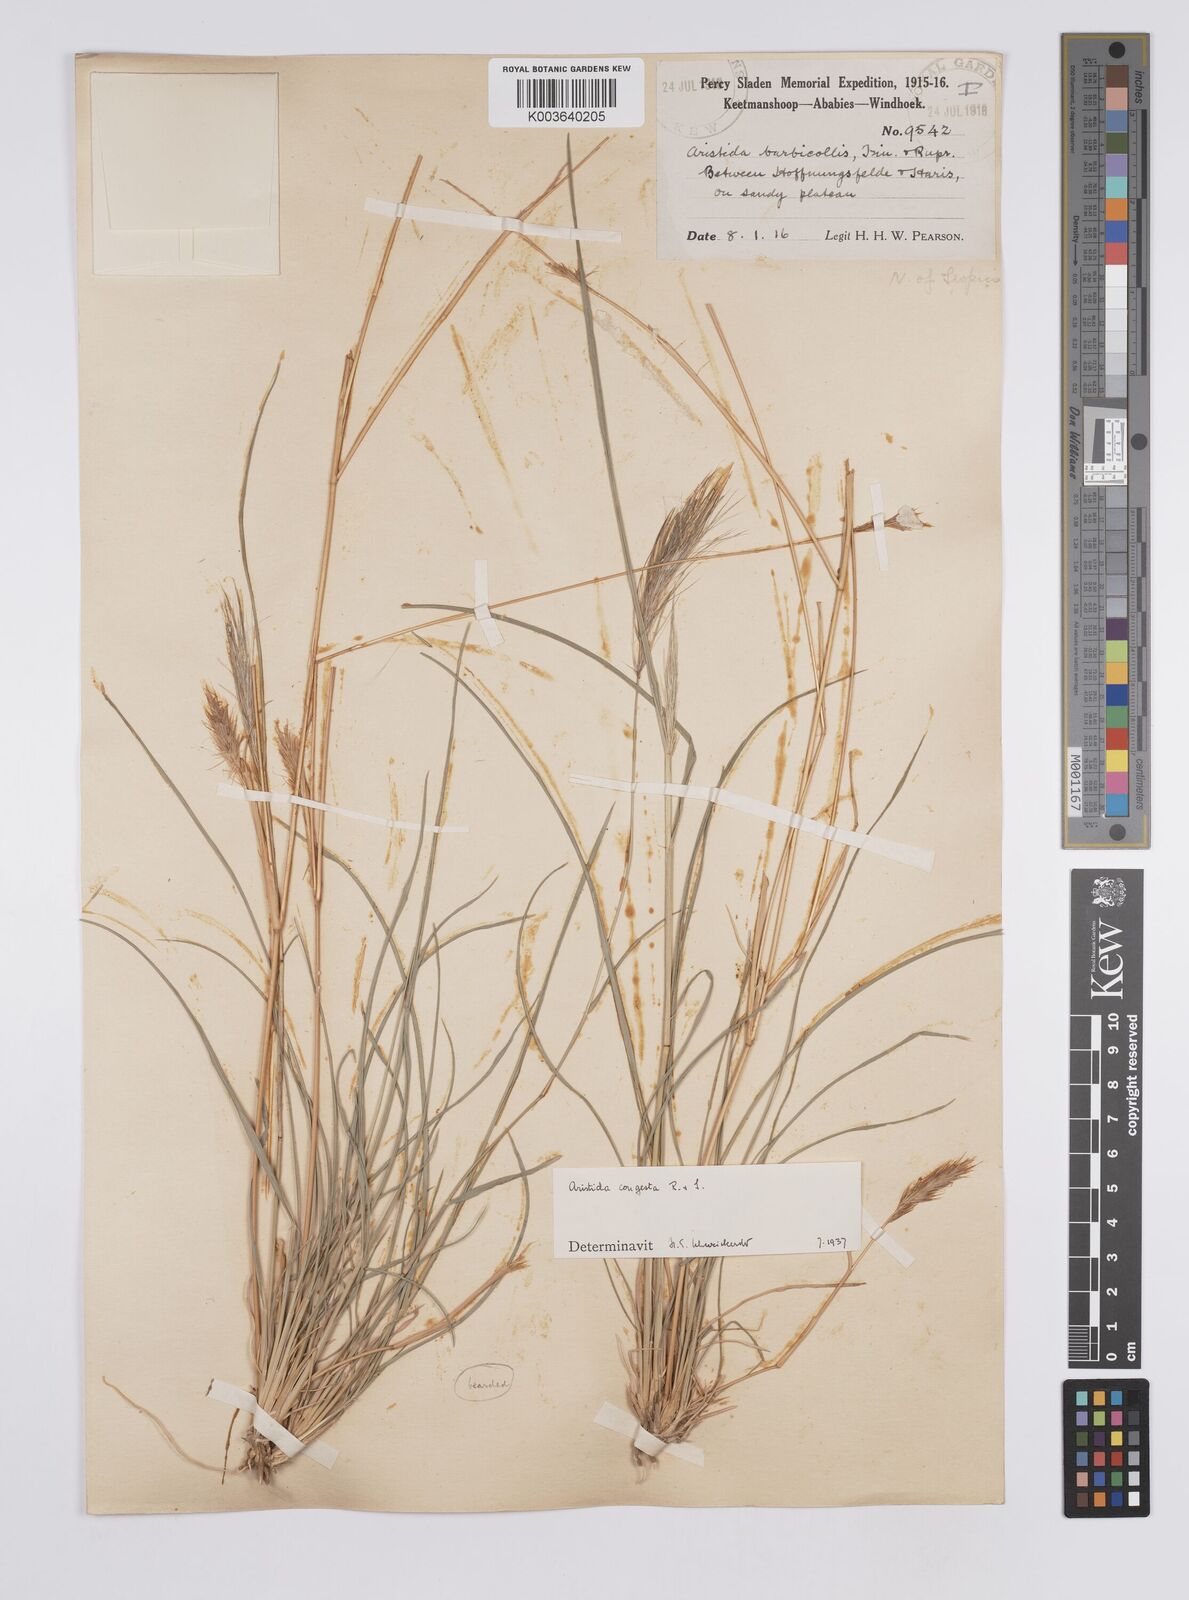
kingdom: Plantae
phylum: Tracheophyta
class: Liliopsida
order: Poales
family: Poaceae
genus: Aristida
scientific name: Aristida congesta
